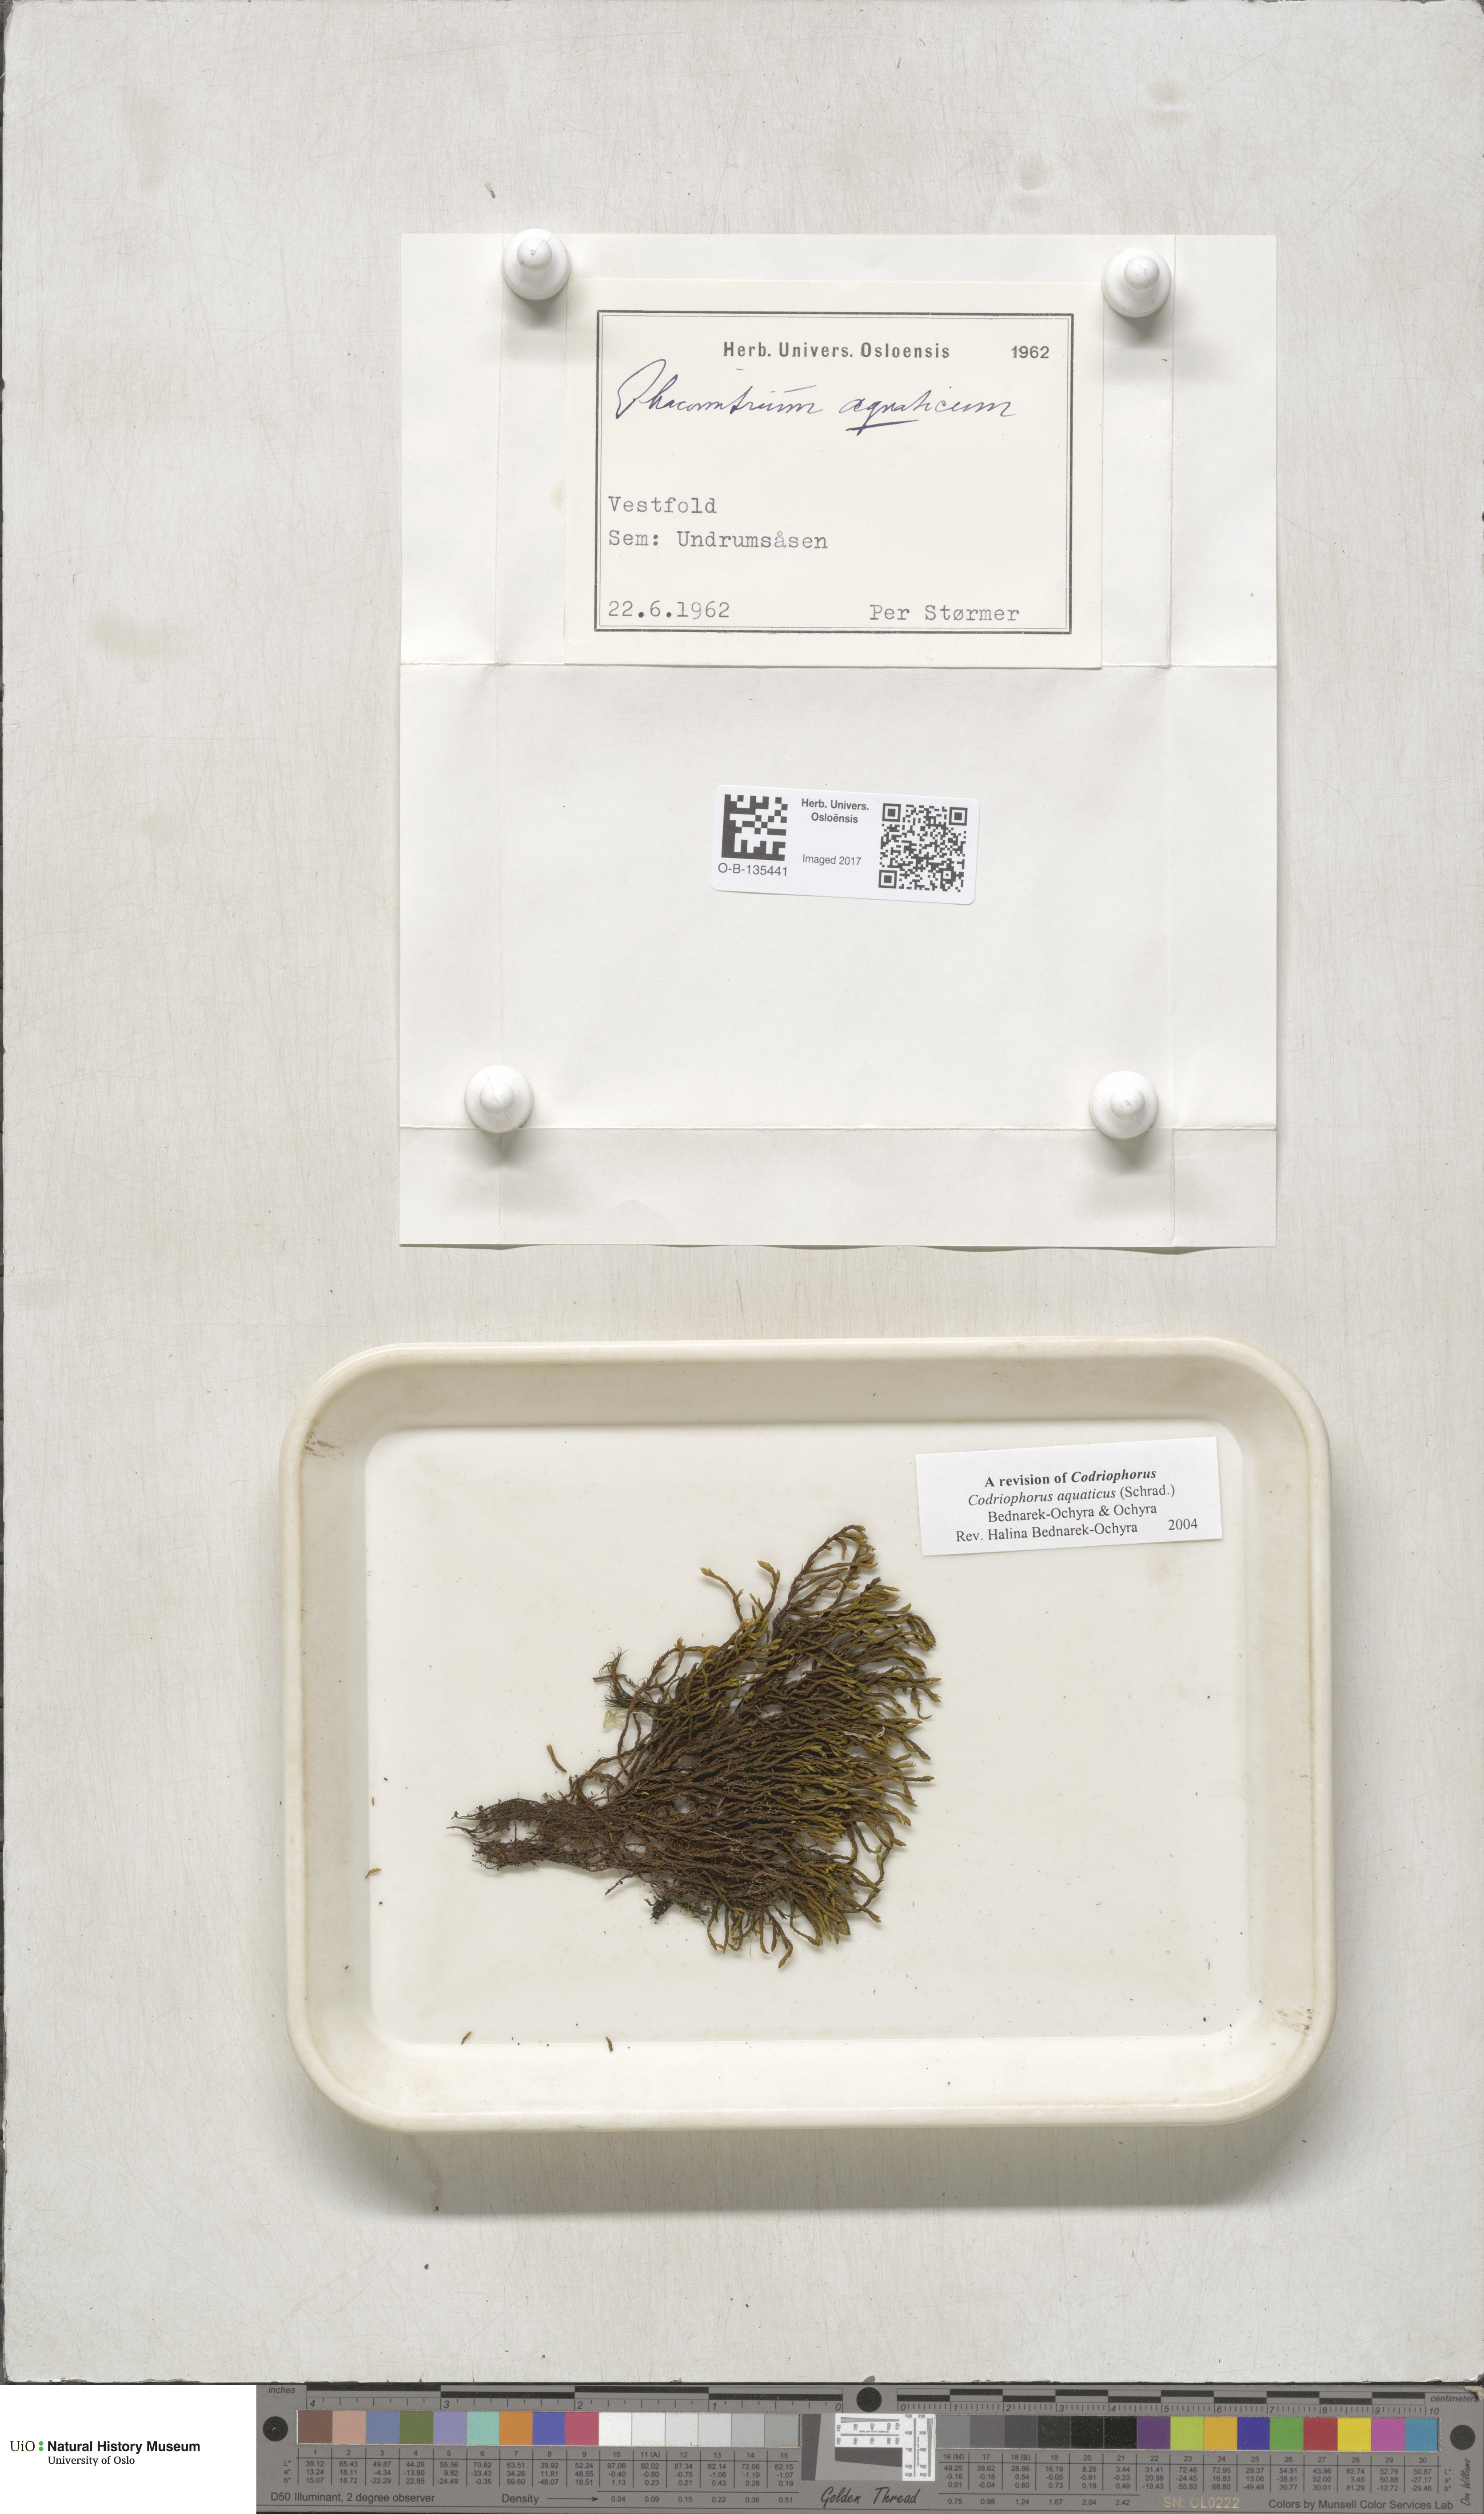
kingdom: Plantae
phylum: Bryophyta
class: Bryopsida
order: Grimmiales
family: Grimmiaceae
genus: Codriophorus
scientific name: Codriophorus aquaticus
